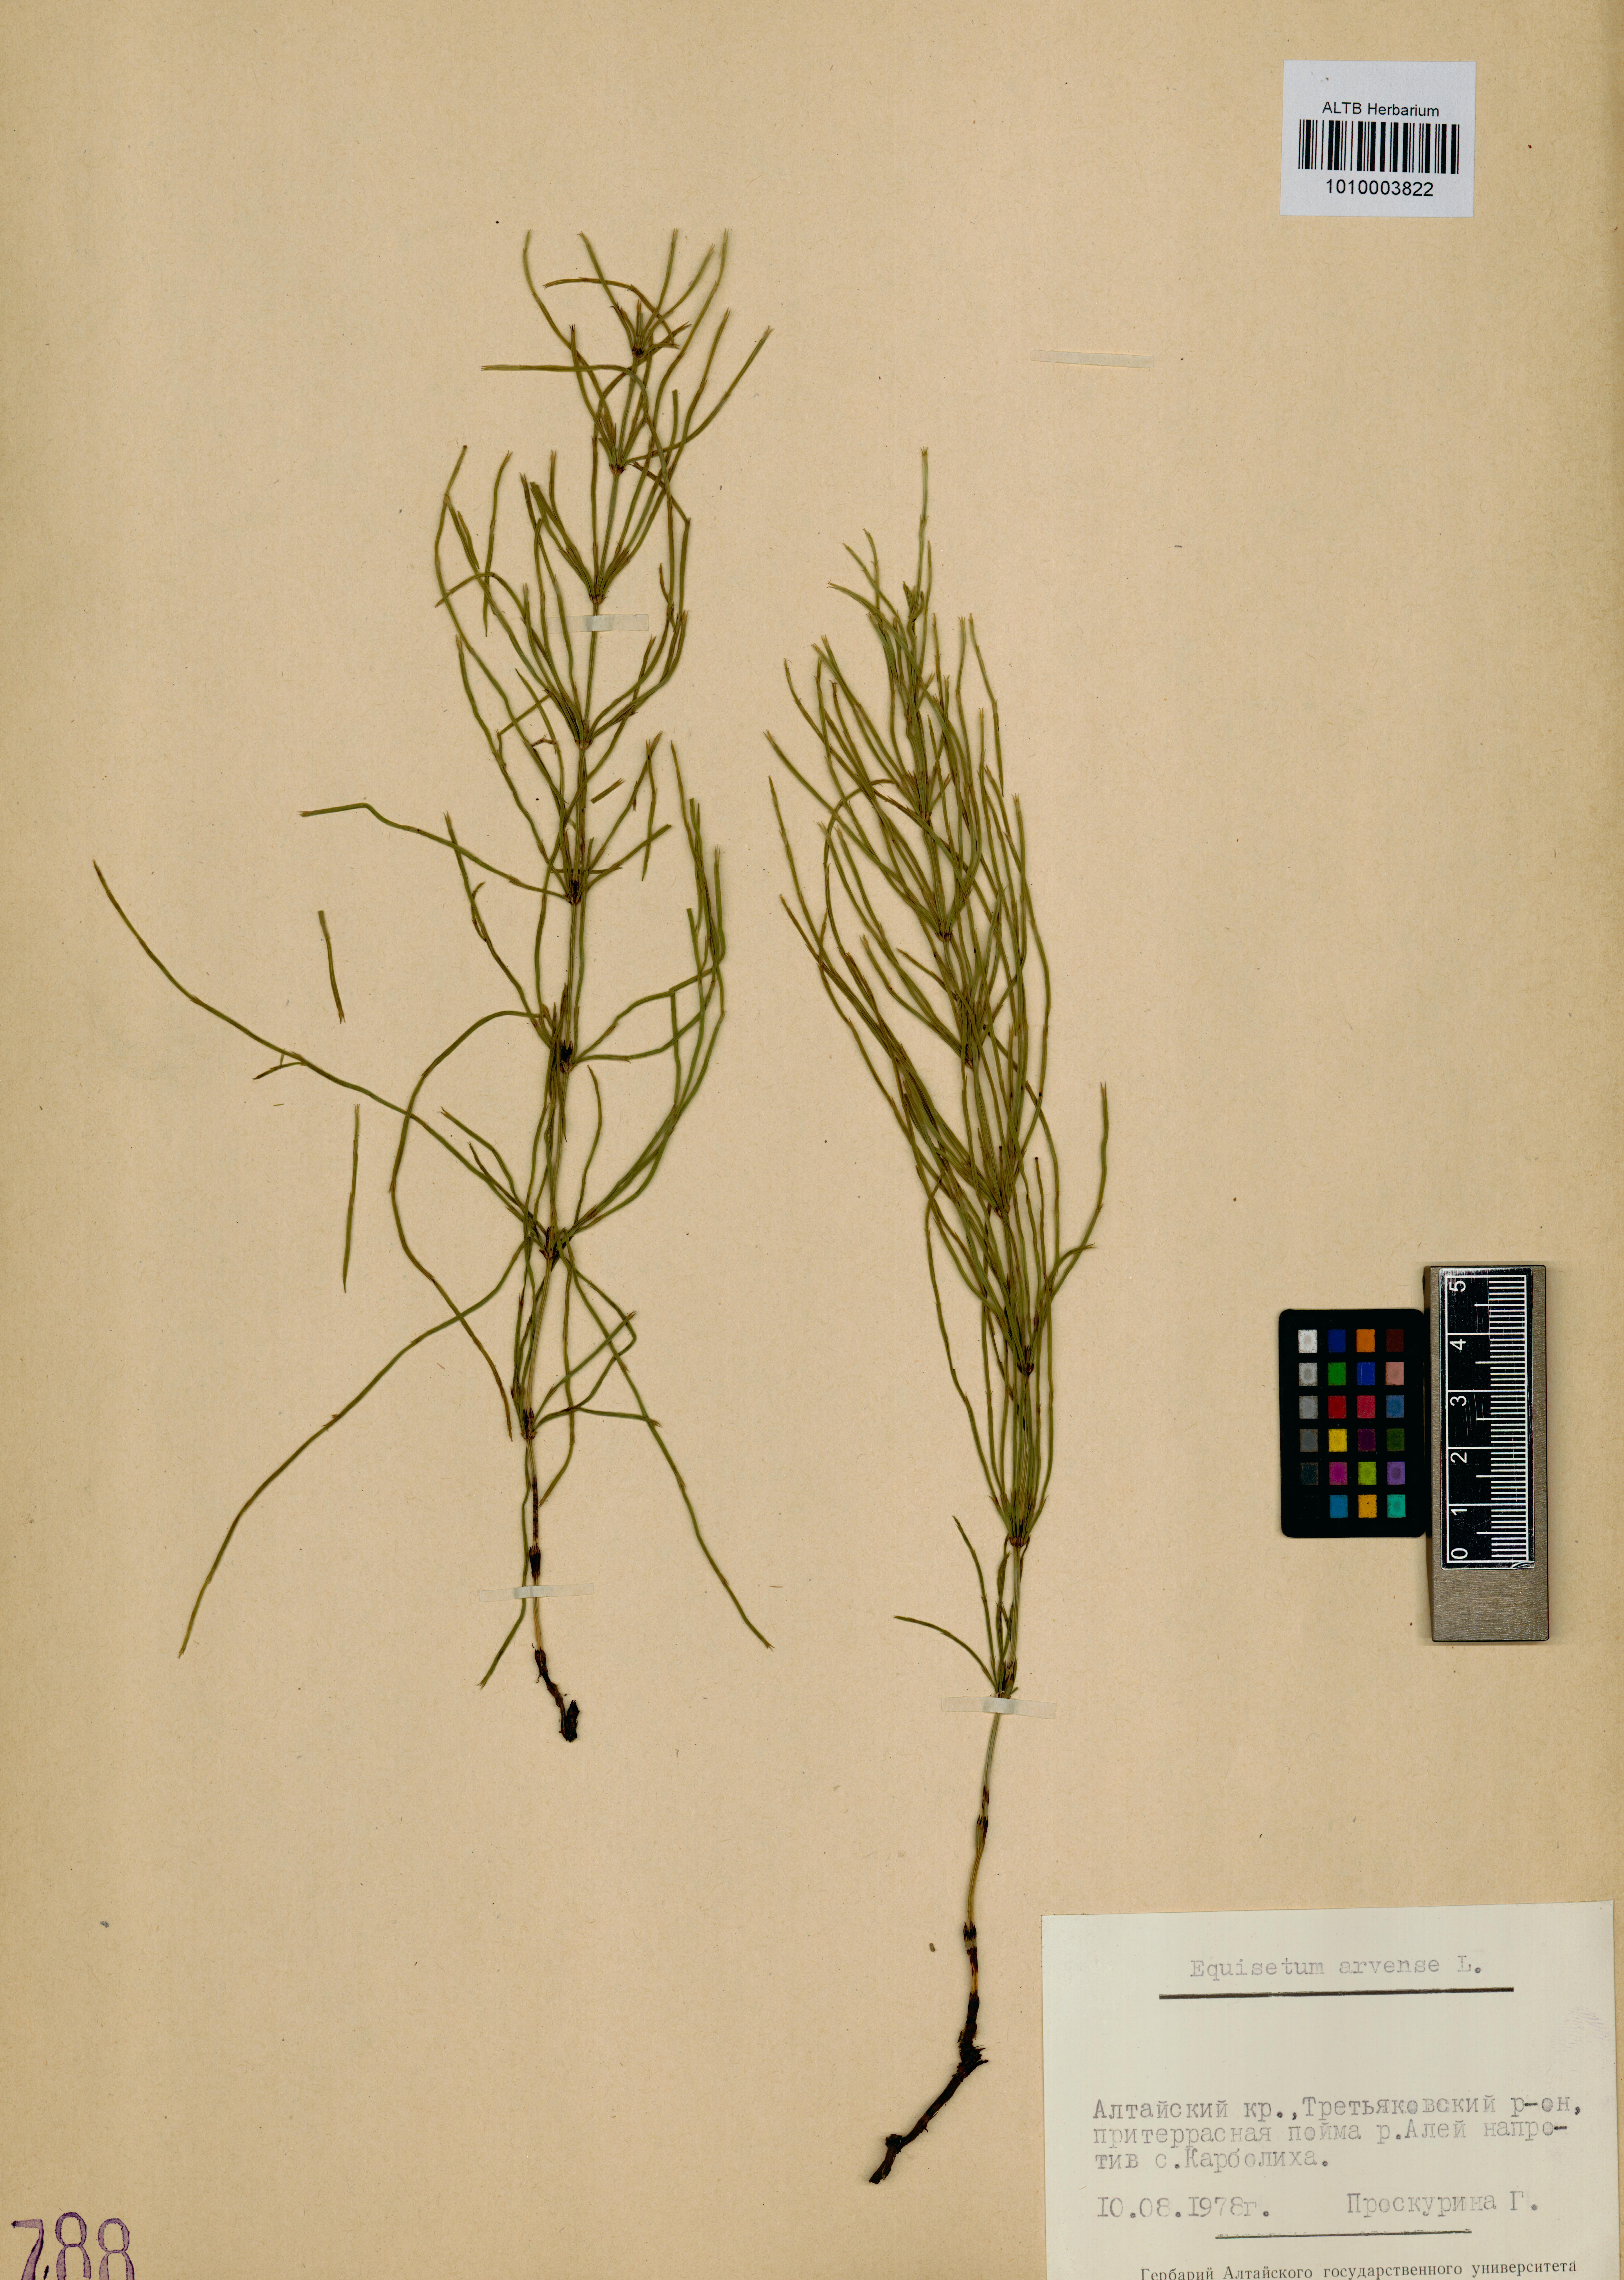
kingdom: Plantae
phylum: Tracheophyta
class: Polypodiopsida
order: Equisetales
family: Equisetaceae
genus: Equisetum
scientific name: Equisetum arvense
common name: Field horsetail
